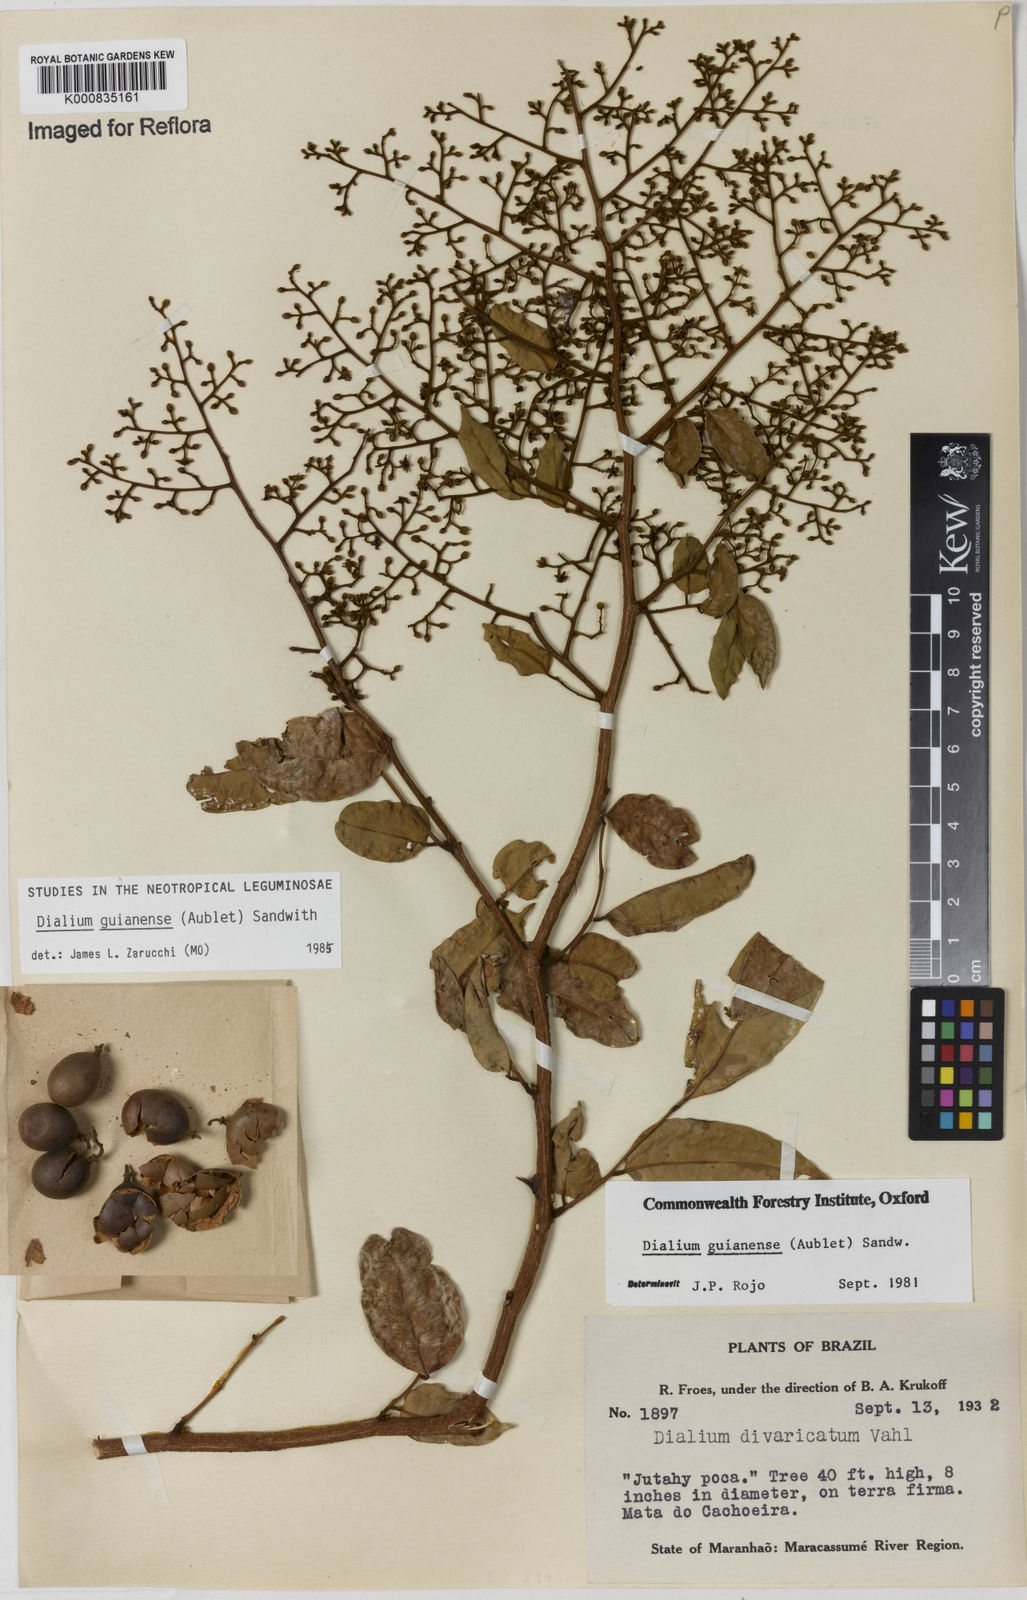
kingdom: Plantae
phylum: Tracheophyta
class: Magnoliopsida
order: Fabales
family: Fabaceae
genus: Dialium
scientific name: Dialium guianense
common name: Ironwood
